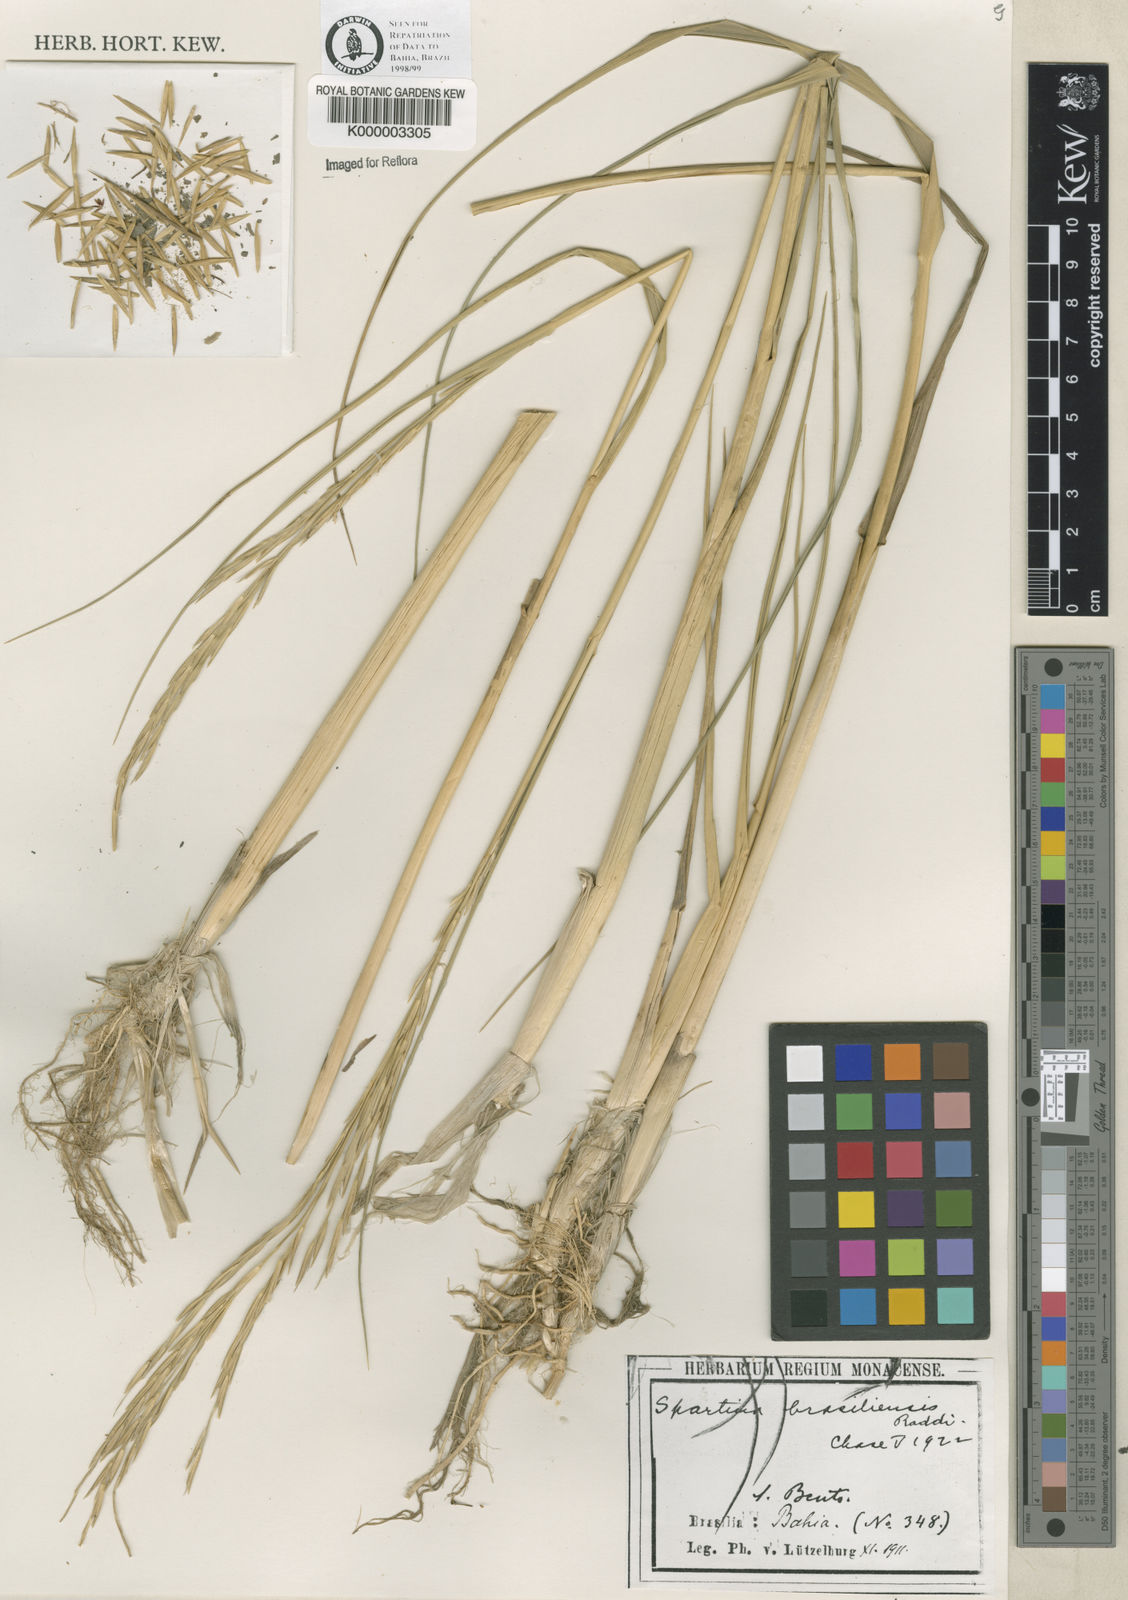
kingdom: Animalia
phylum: Mollusca
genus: Spartina
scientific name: Spartina
